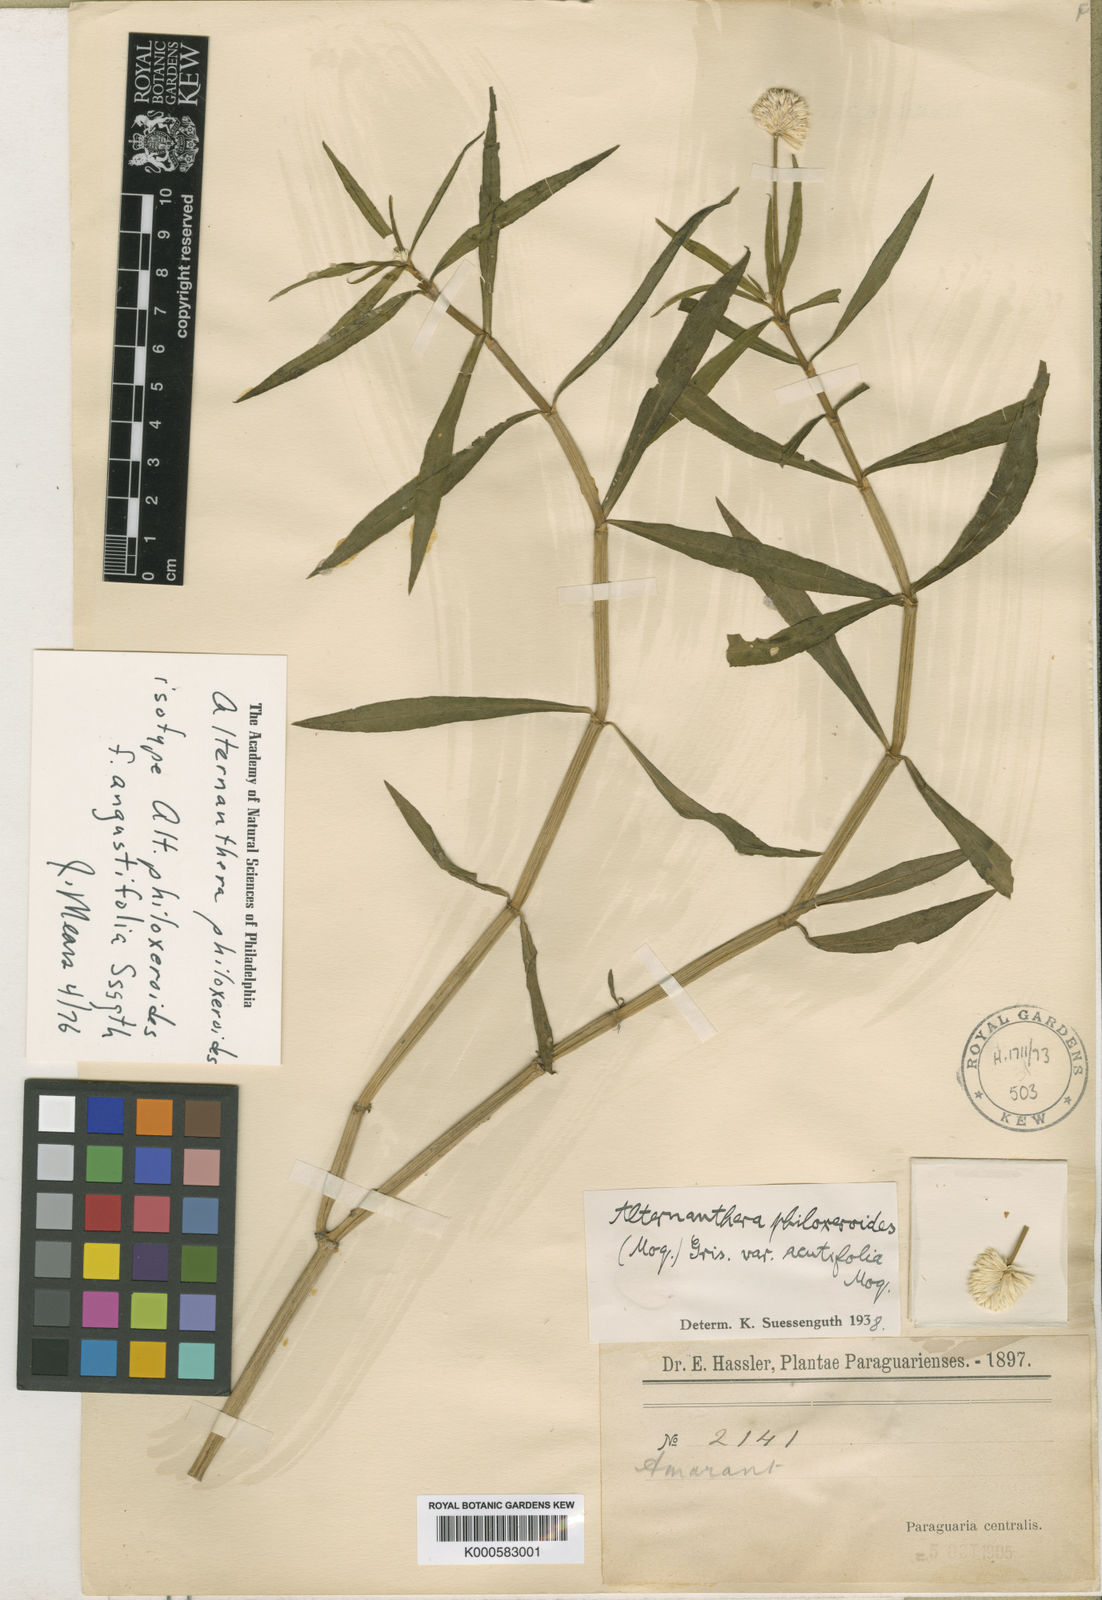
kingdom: Plantae
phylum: Tracheophyta
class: Magnoliopsida
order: Caryophyllales
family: Amaranthaceae
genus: Alternanthera
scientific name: Alternanthera philoxeroides
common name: Alligatorweed
